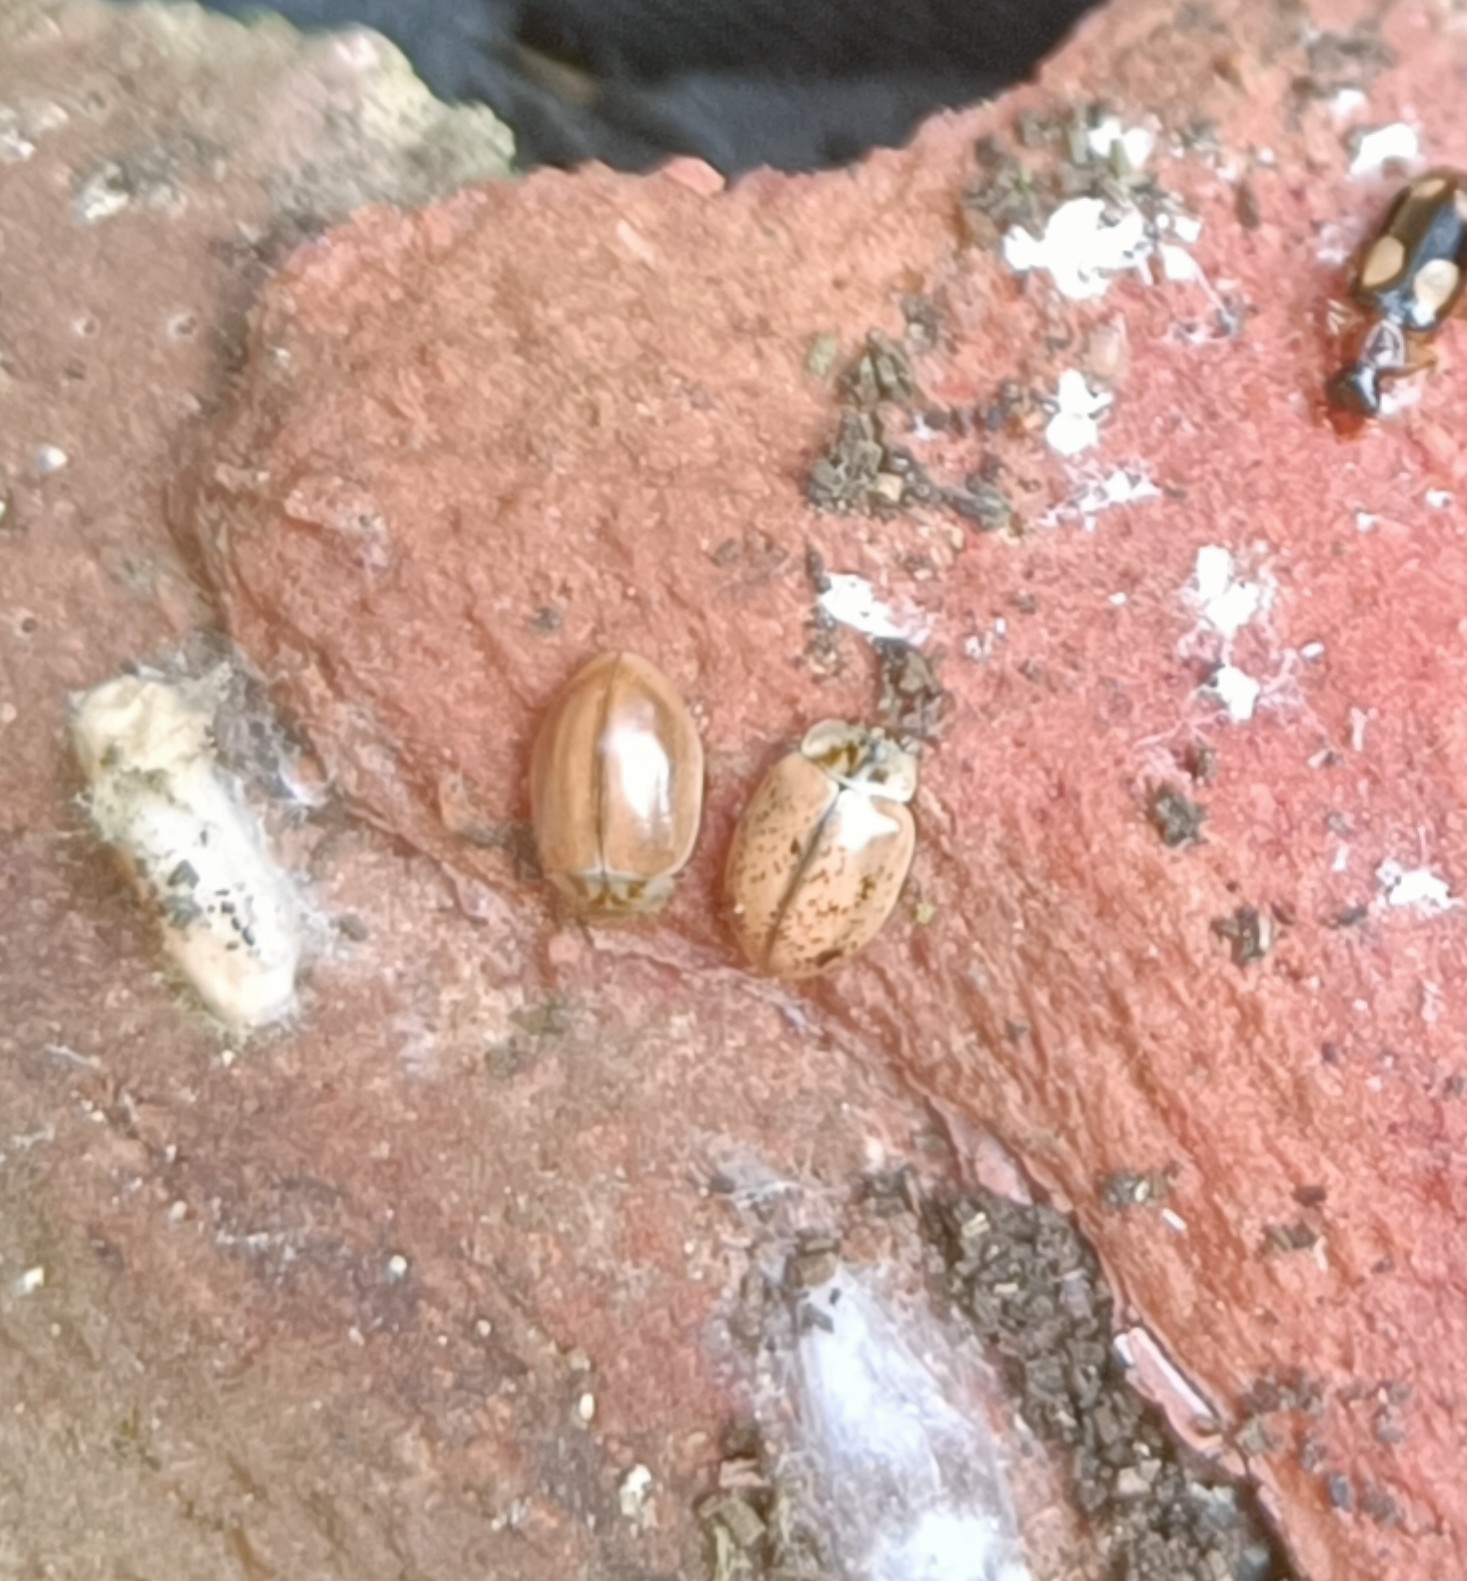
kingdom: Animalia
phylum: Arthropoda
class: Insecta
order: Coleoptera
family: Coccinellidae
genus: Aphidecta
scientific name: Aphidecta obliterata
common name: Uplettet mariehøne
